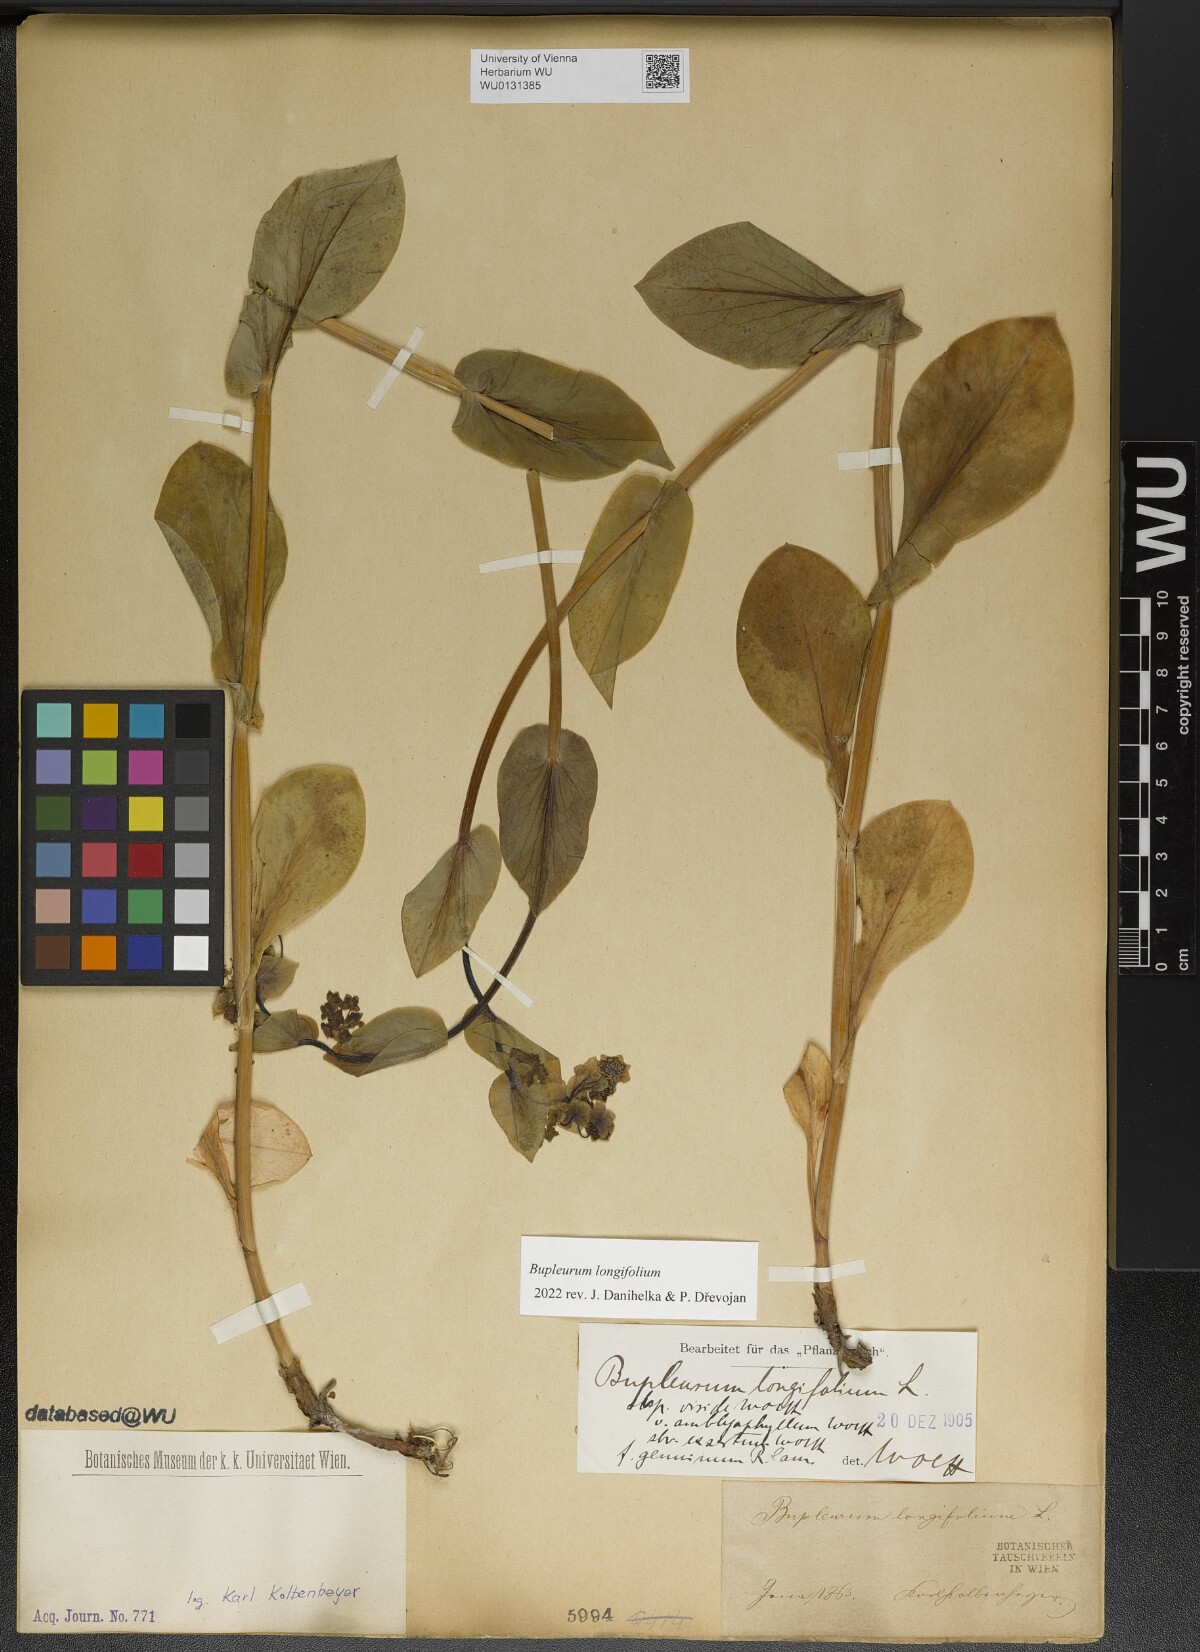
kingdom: Plantae
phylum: Tracheophyta
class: Magnoliopsida
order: Apiales
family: Apiaceae
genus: Bupleurum
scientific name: Bupleurum longifolium
